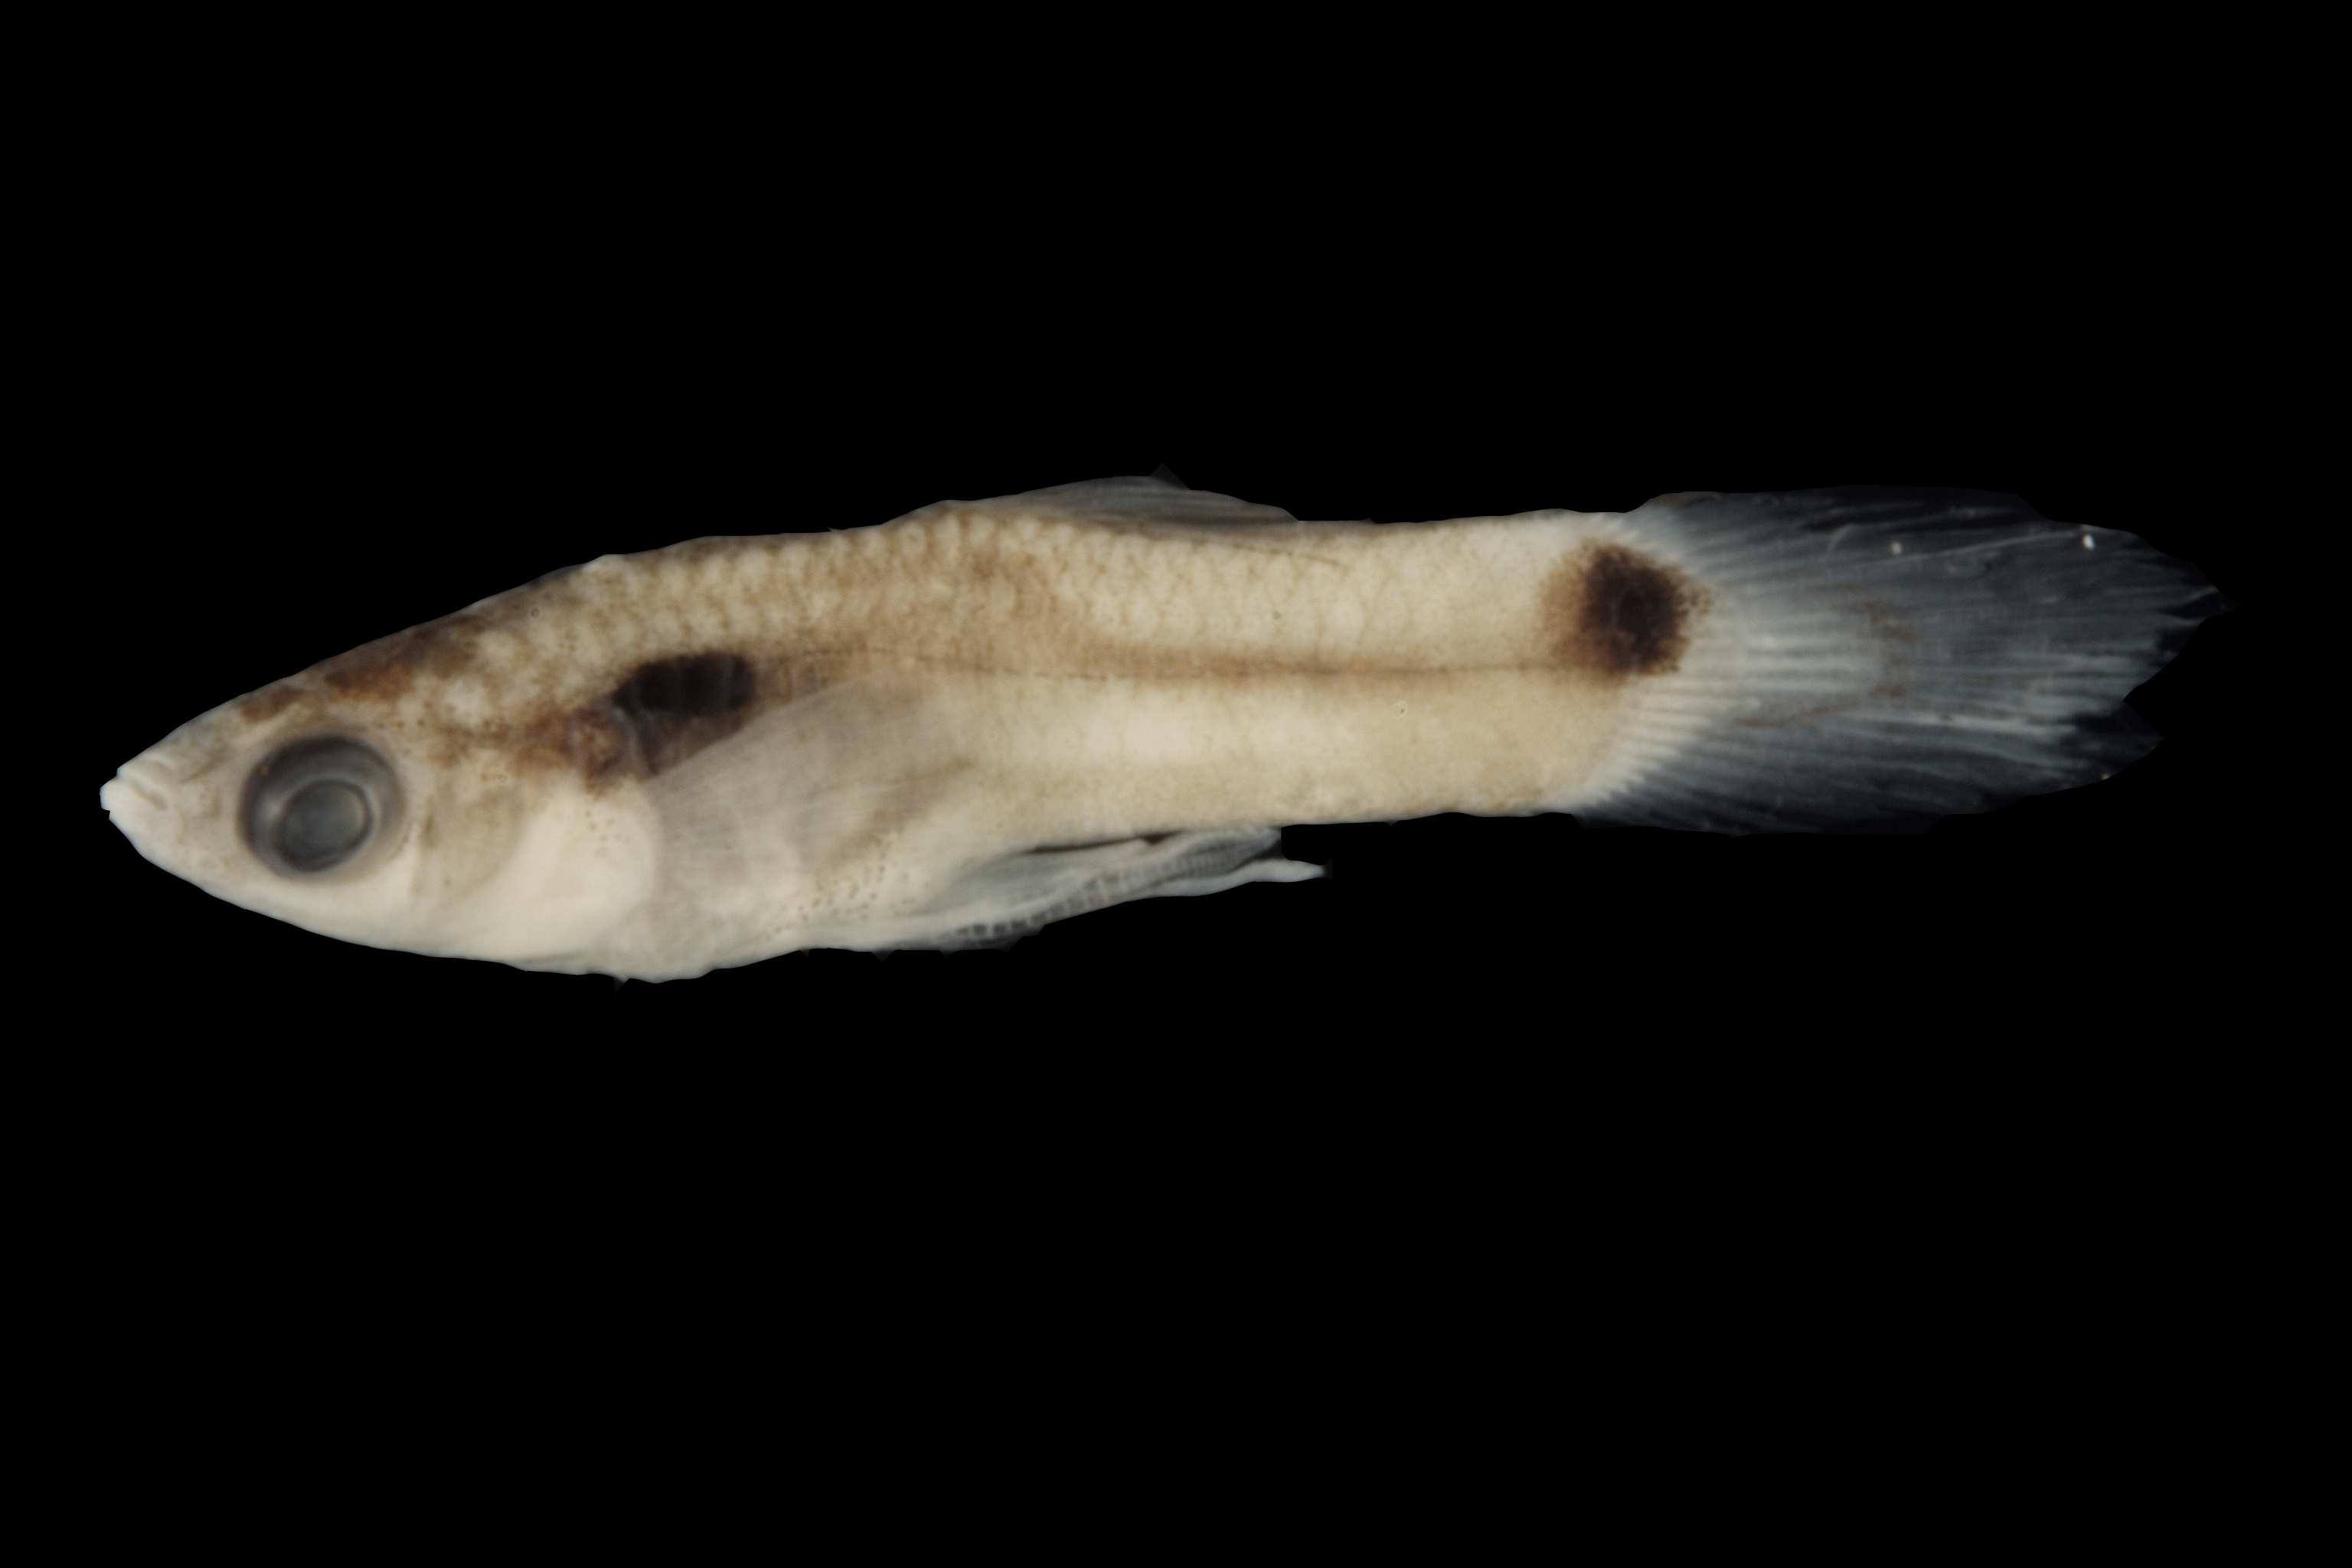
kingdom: Animalia
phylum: Chordata
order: Cyprinodontiformes
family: Poeciliidae
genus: Poecilia
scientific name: Poecilia reticulata
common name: Guppy
